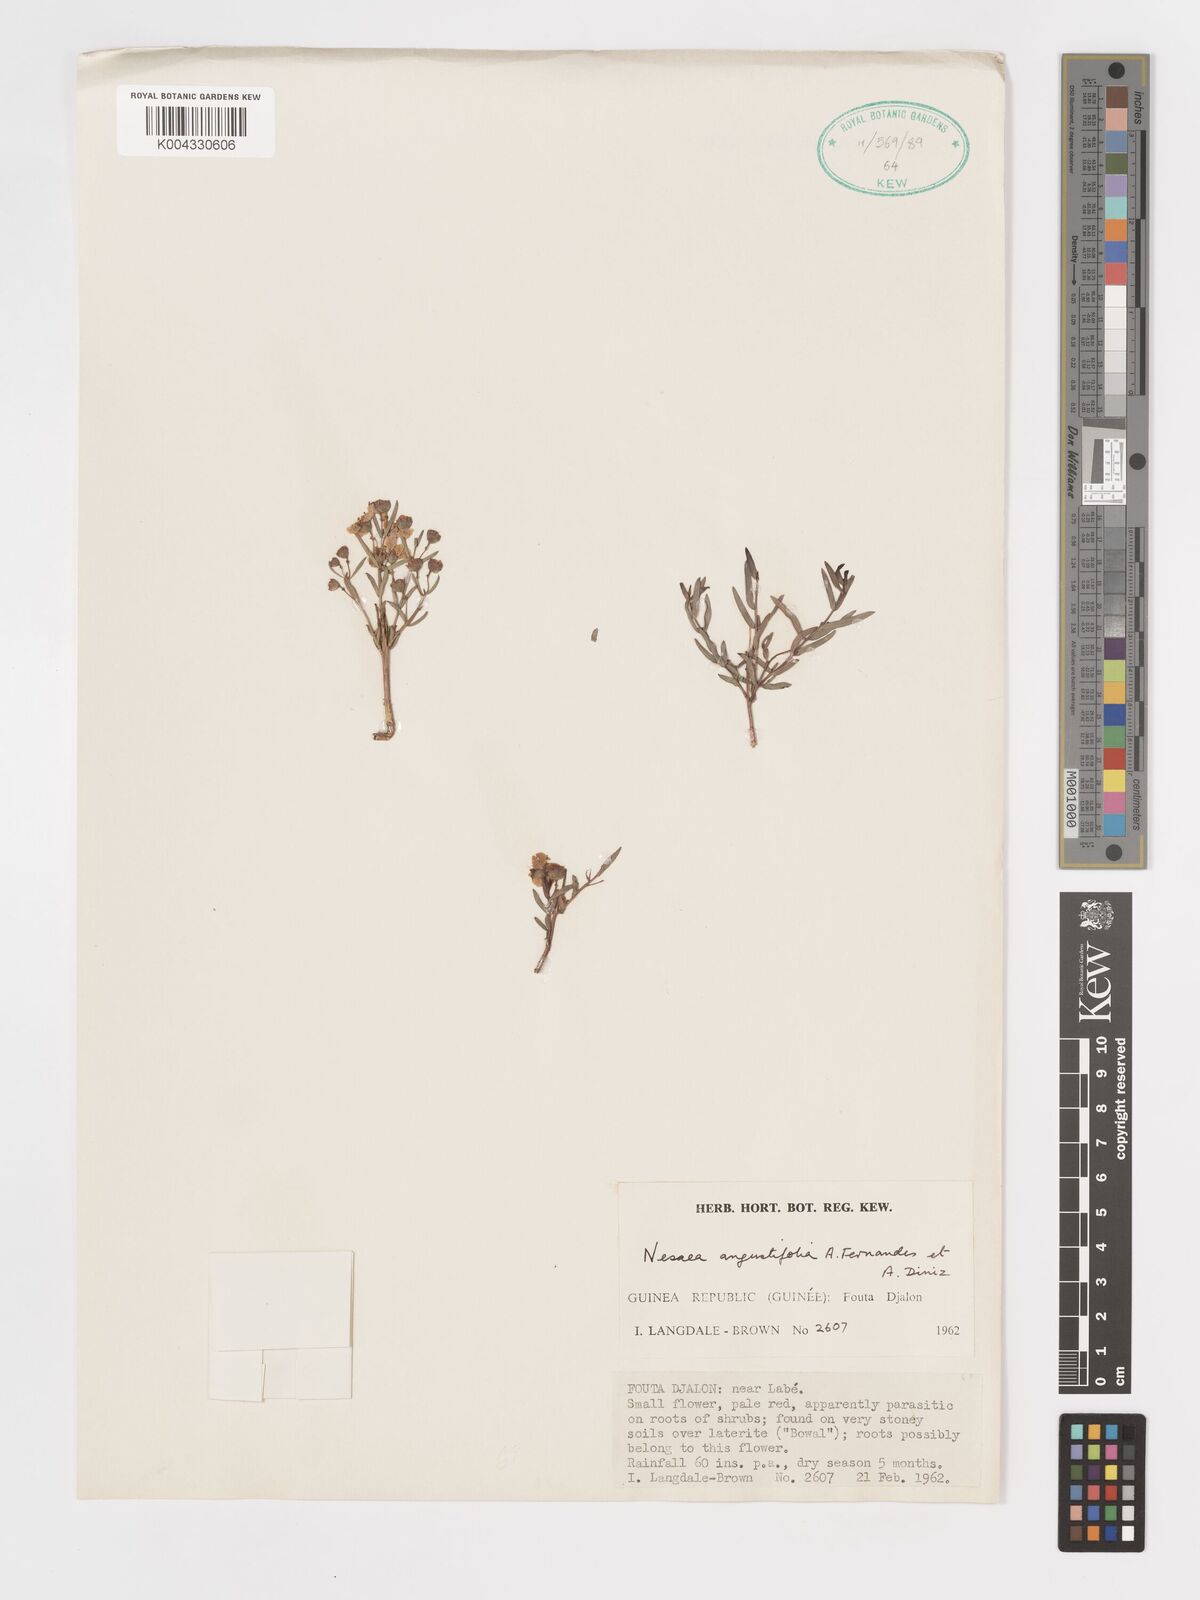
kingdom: Plantae
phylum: Tracheophyta
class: Magnoliopsida
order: Myrtales
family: Lythraceae
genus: Nesaea
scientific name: Nesaea
